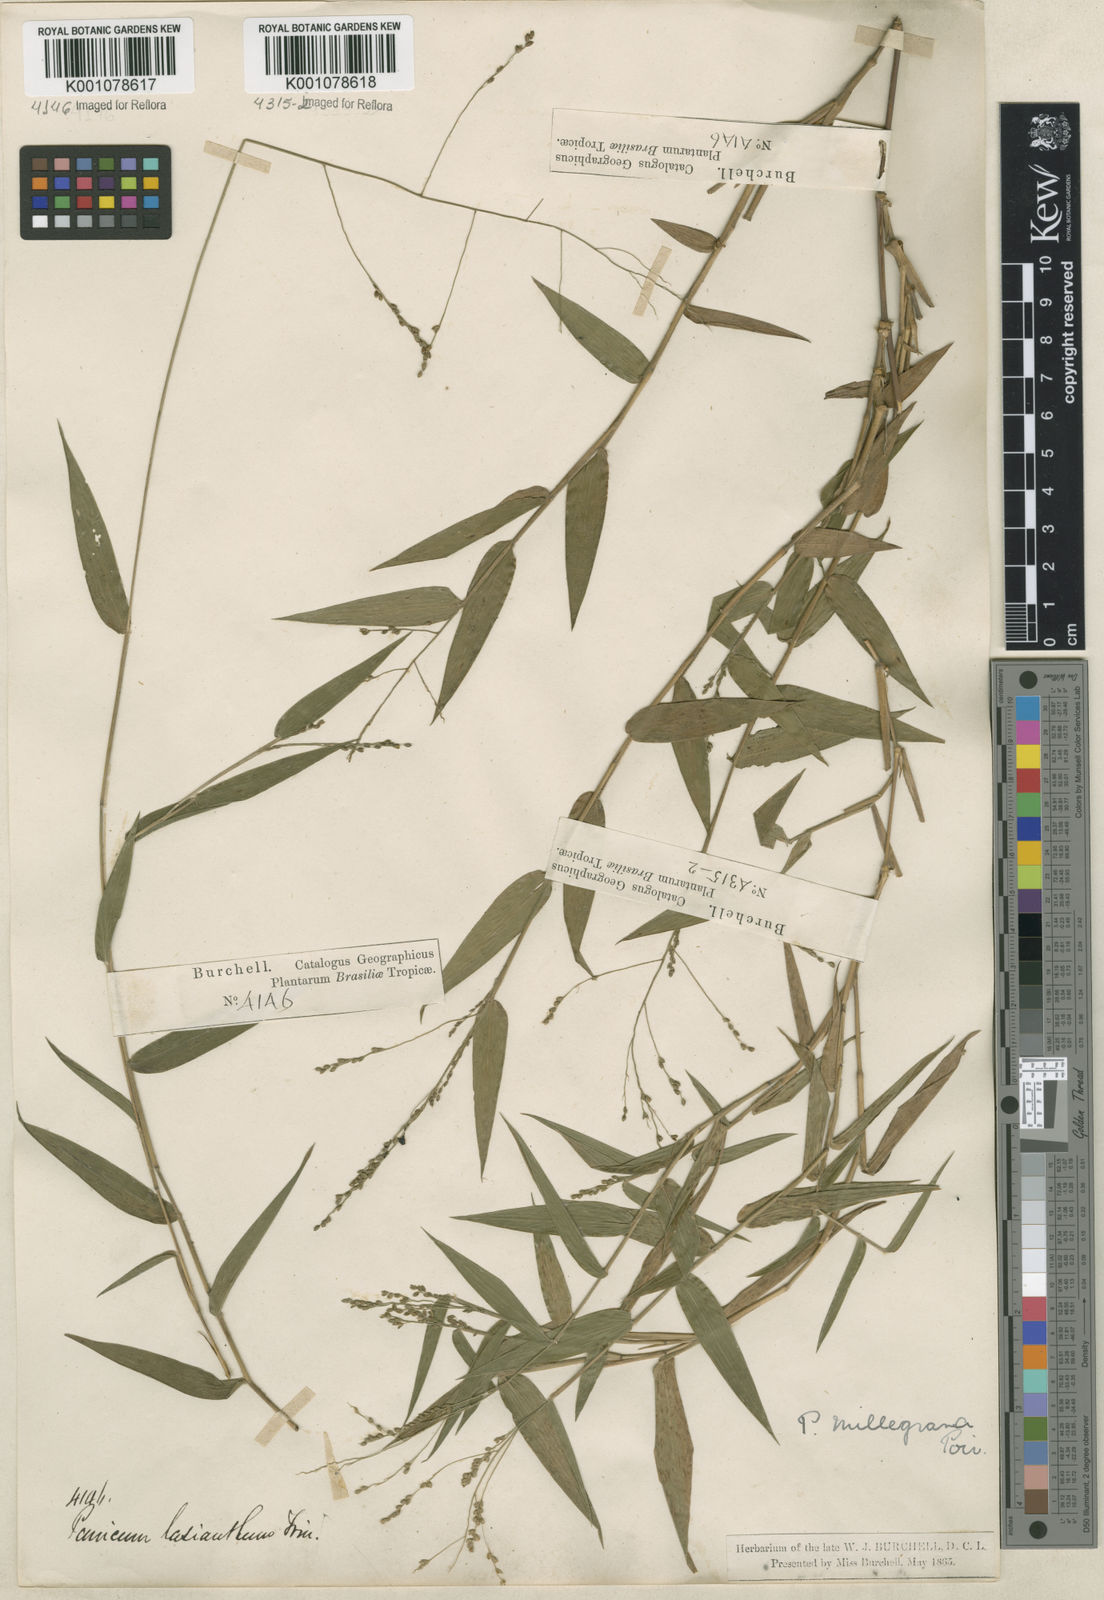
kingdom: Plantae
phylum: Tracheophyta
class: Liliopsida
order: Poales
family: Poaceae
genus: Panicum
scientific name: Panicum sellowii
